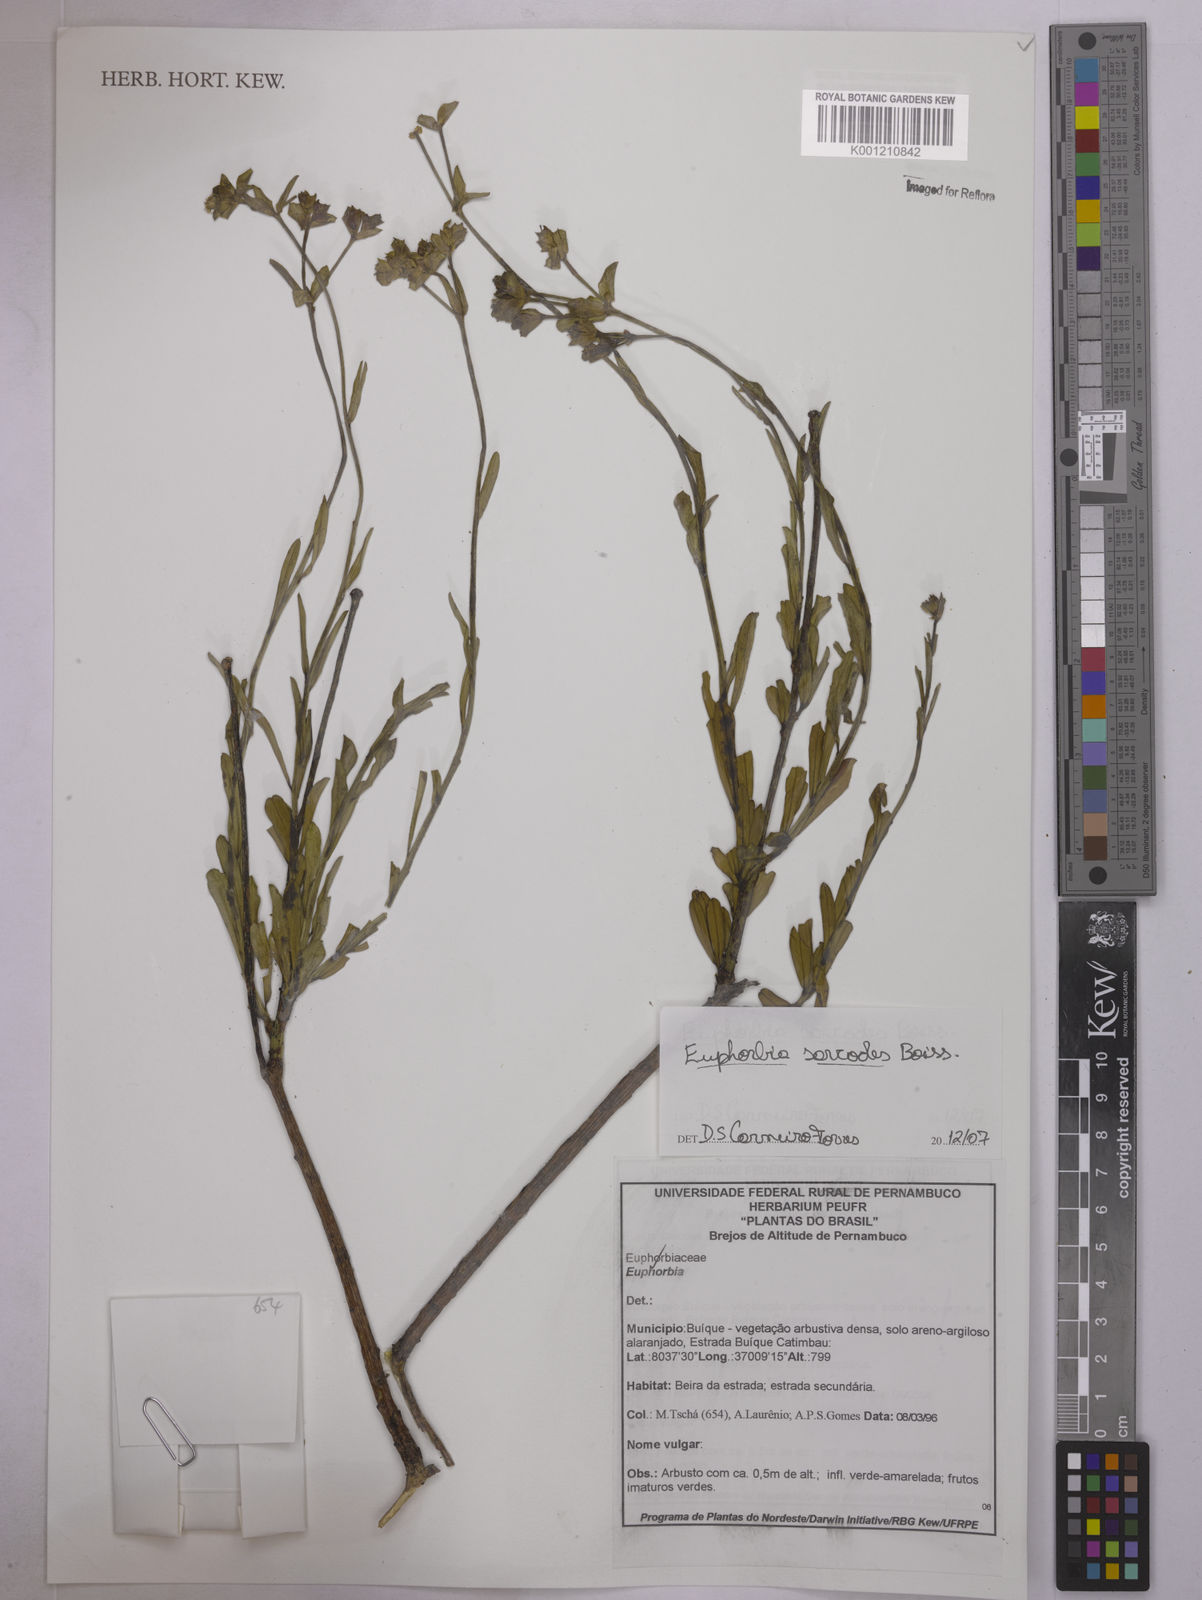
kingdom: Plantae
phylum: Tracheophyta
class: Magnoliopsida
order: Malpighiales
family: Euphorbiaceae
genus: Euphorbia
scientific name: Euphorbia sarcodes
